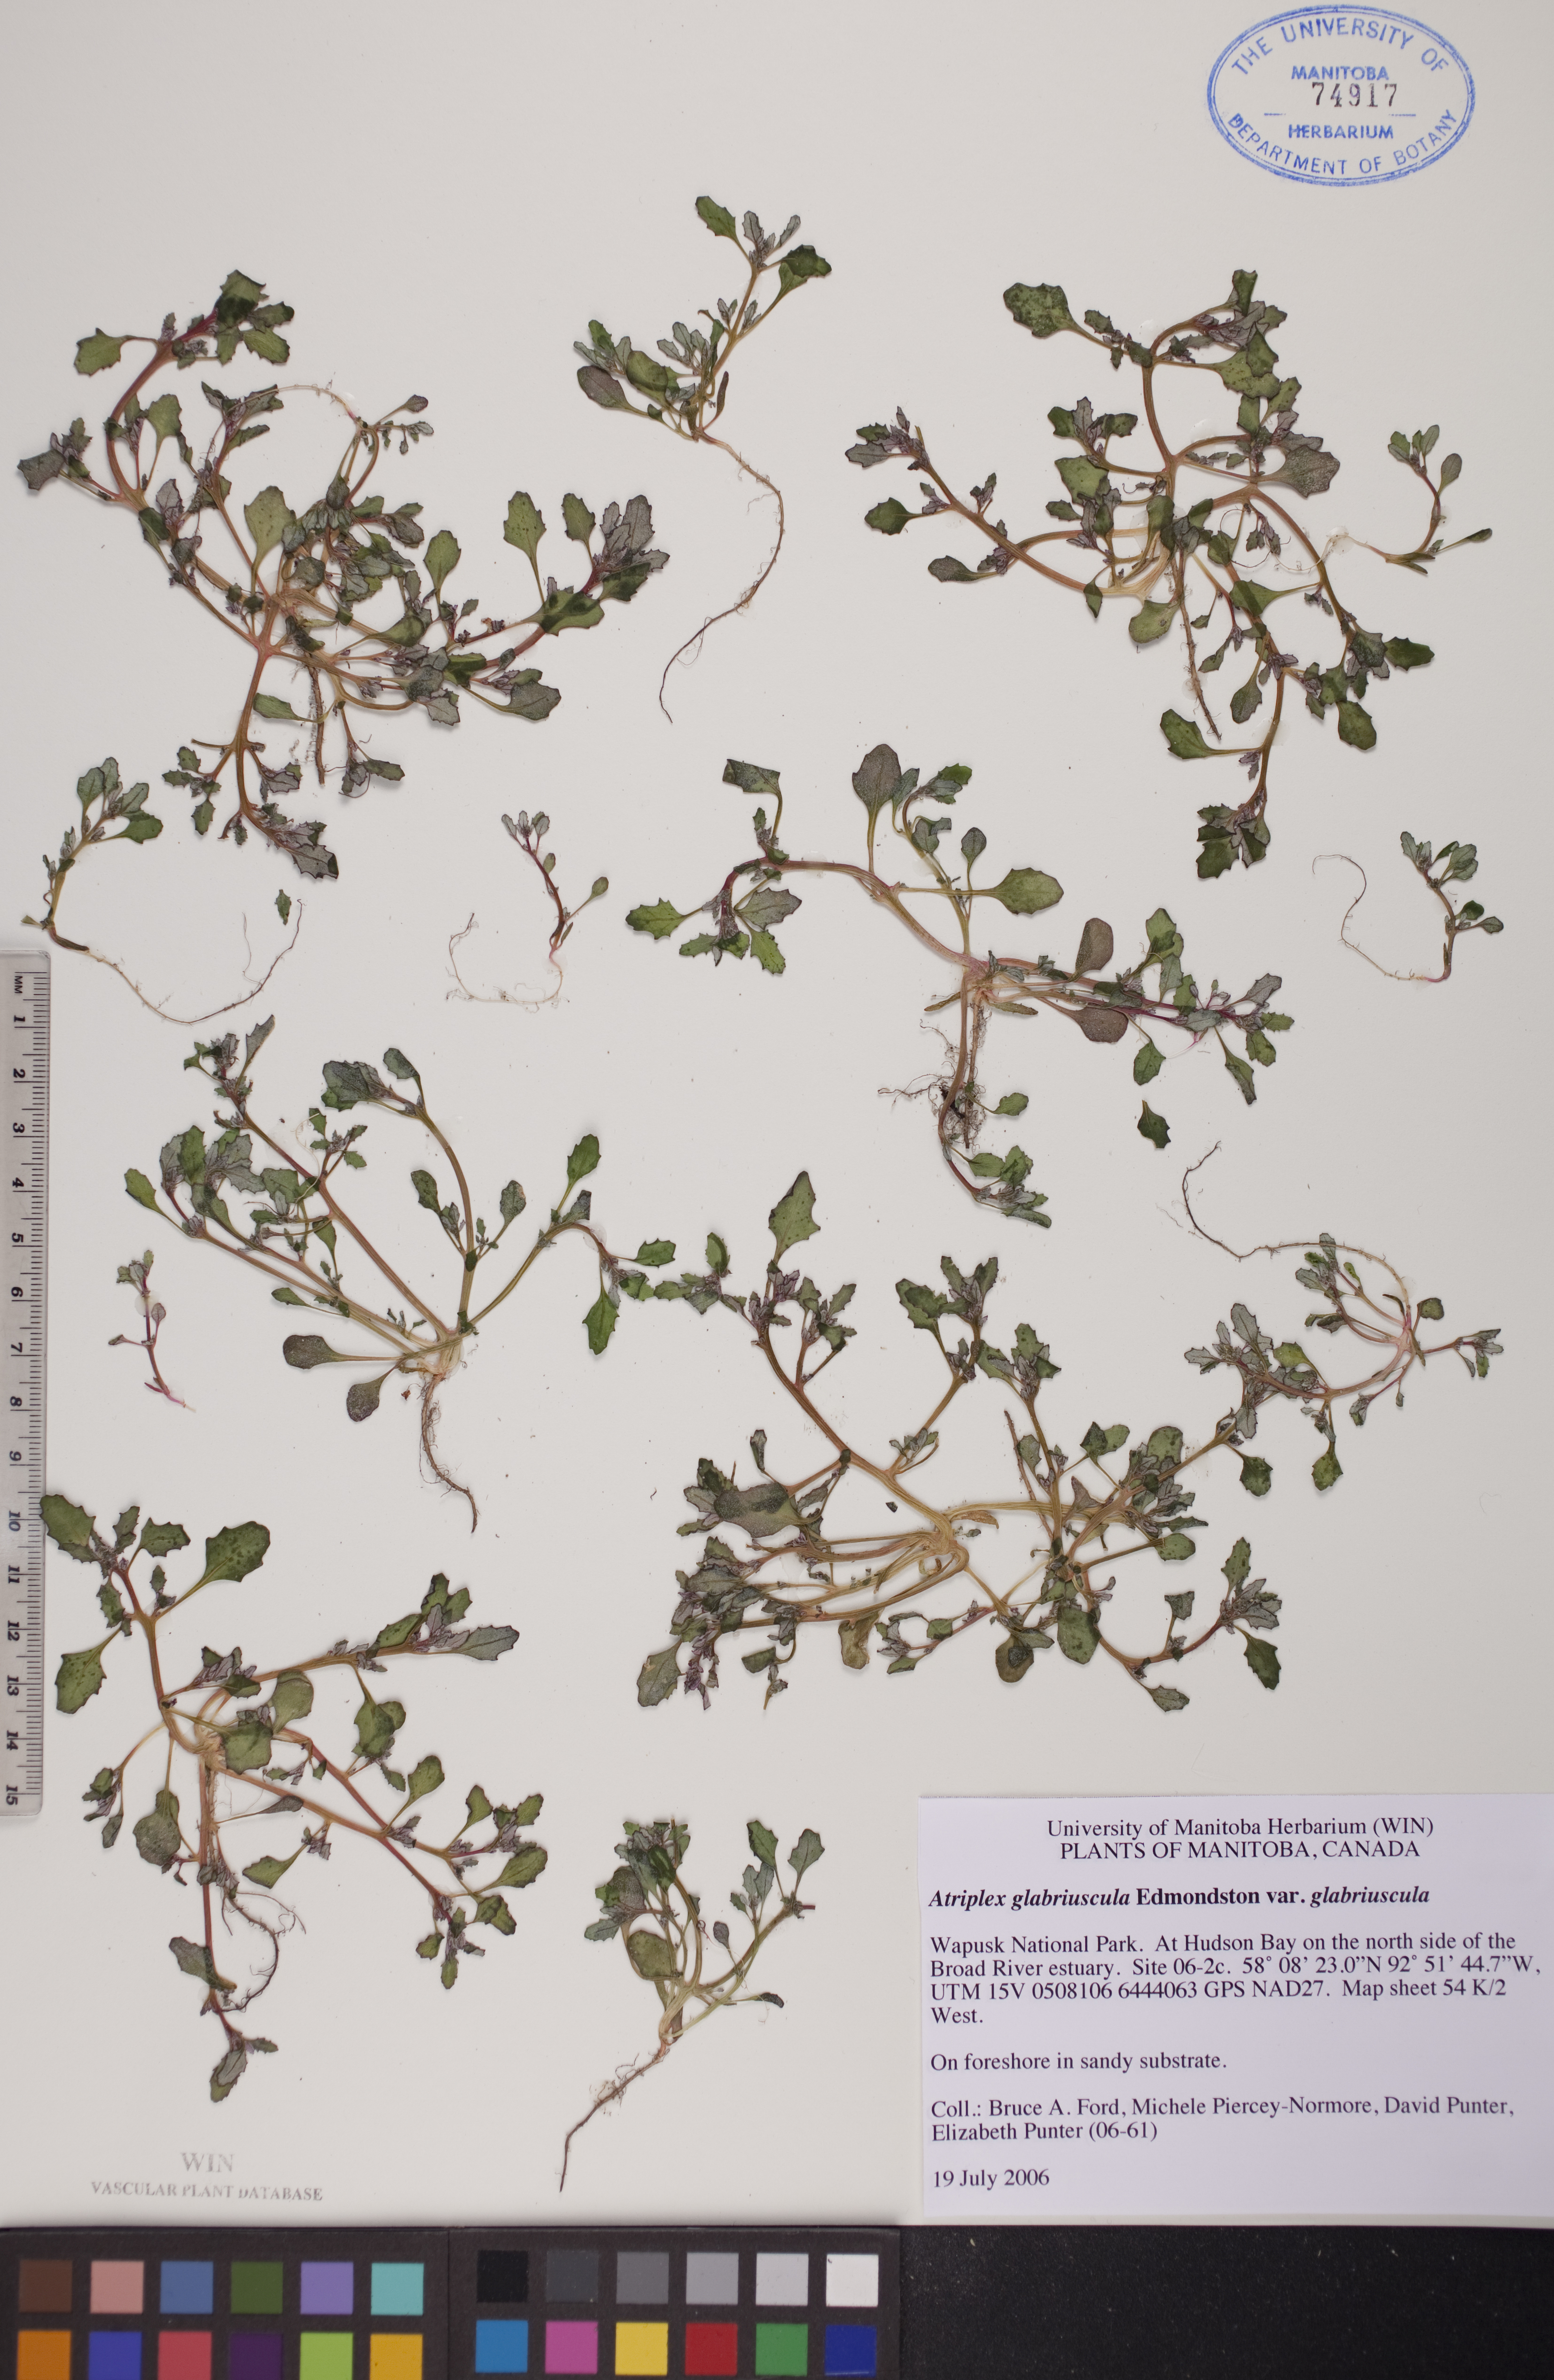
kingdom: Plantae
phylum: Tracheophyta
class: Magnoliopsida
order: Caryophyllales
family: Amaranthaceae
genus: Atriplex
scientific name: Atriplex glabriuscula
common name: Babington's orache
